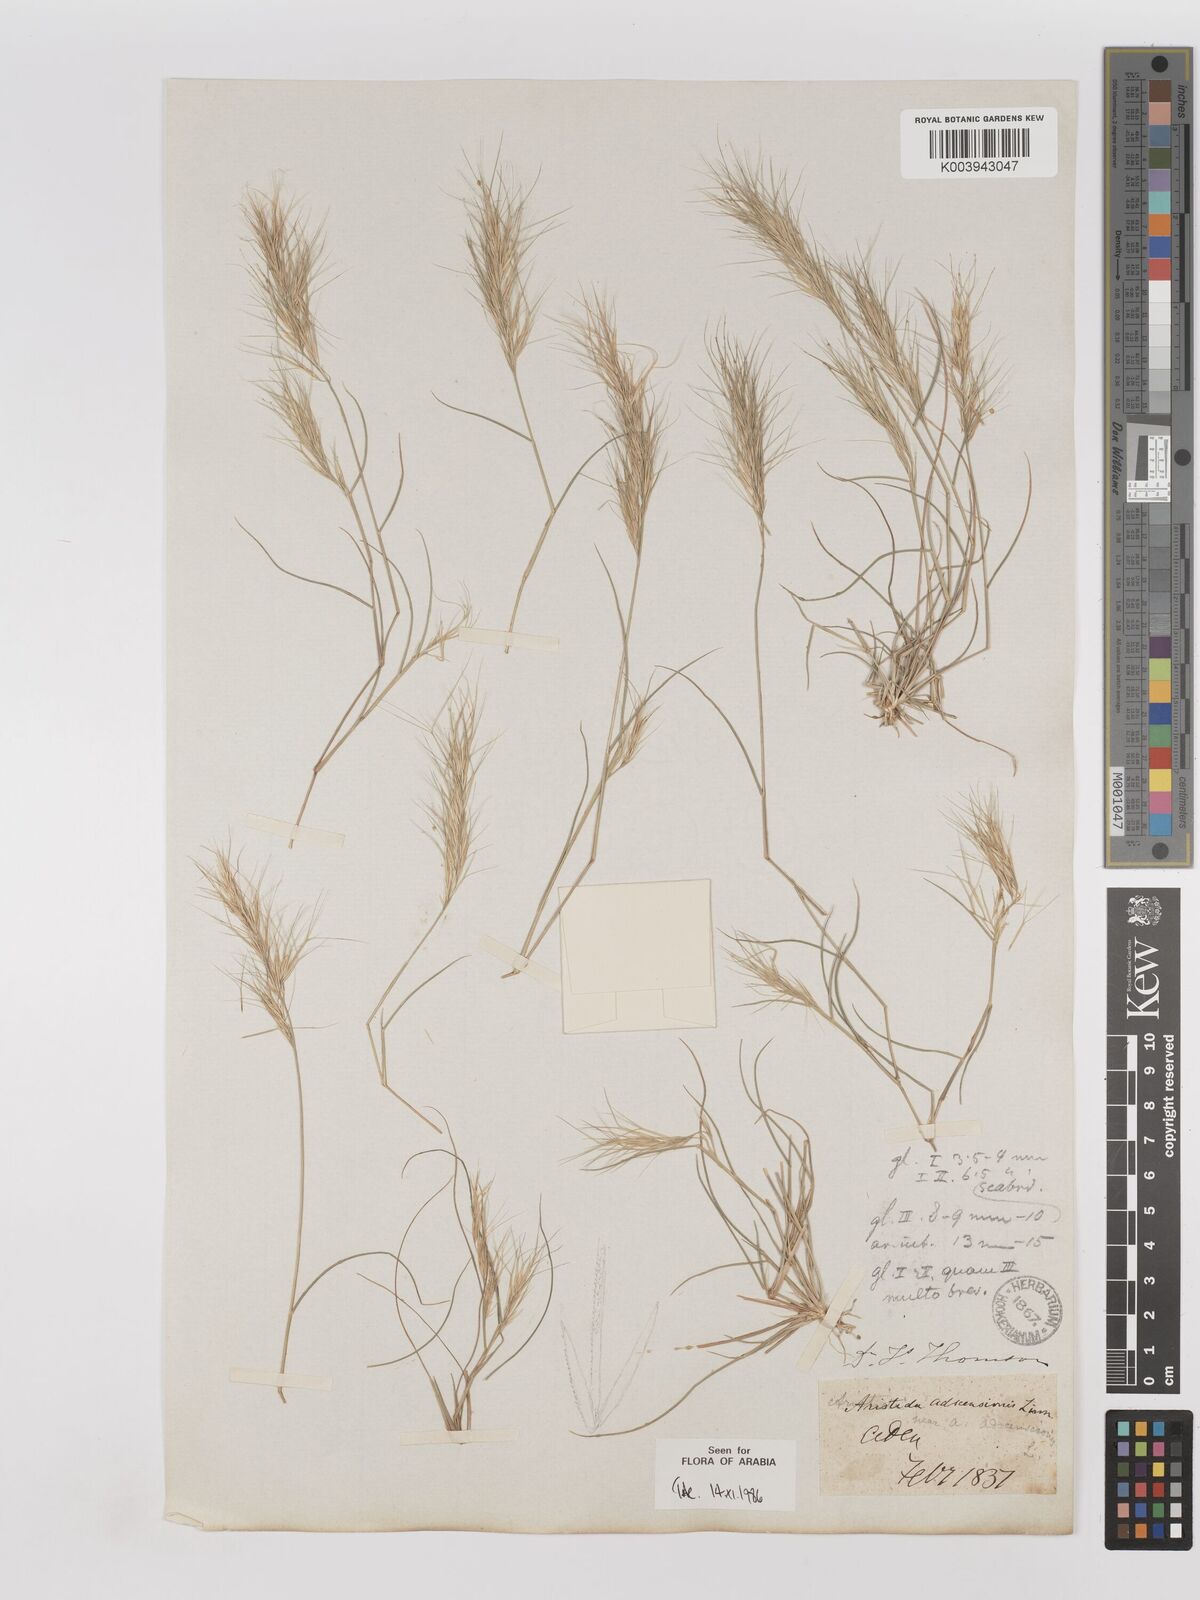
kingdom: Plantae
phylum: Tracheophyta
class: Liliopsida
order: Poales
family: Poaceae
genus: Aristida
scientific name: Aristida adscensionis
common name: Sixweeks threeawn
